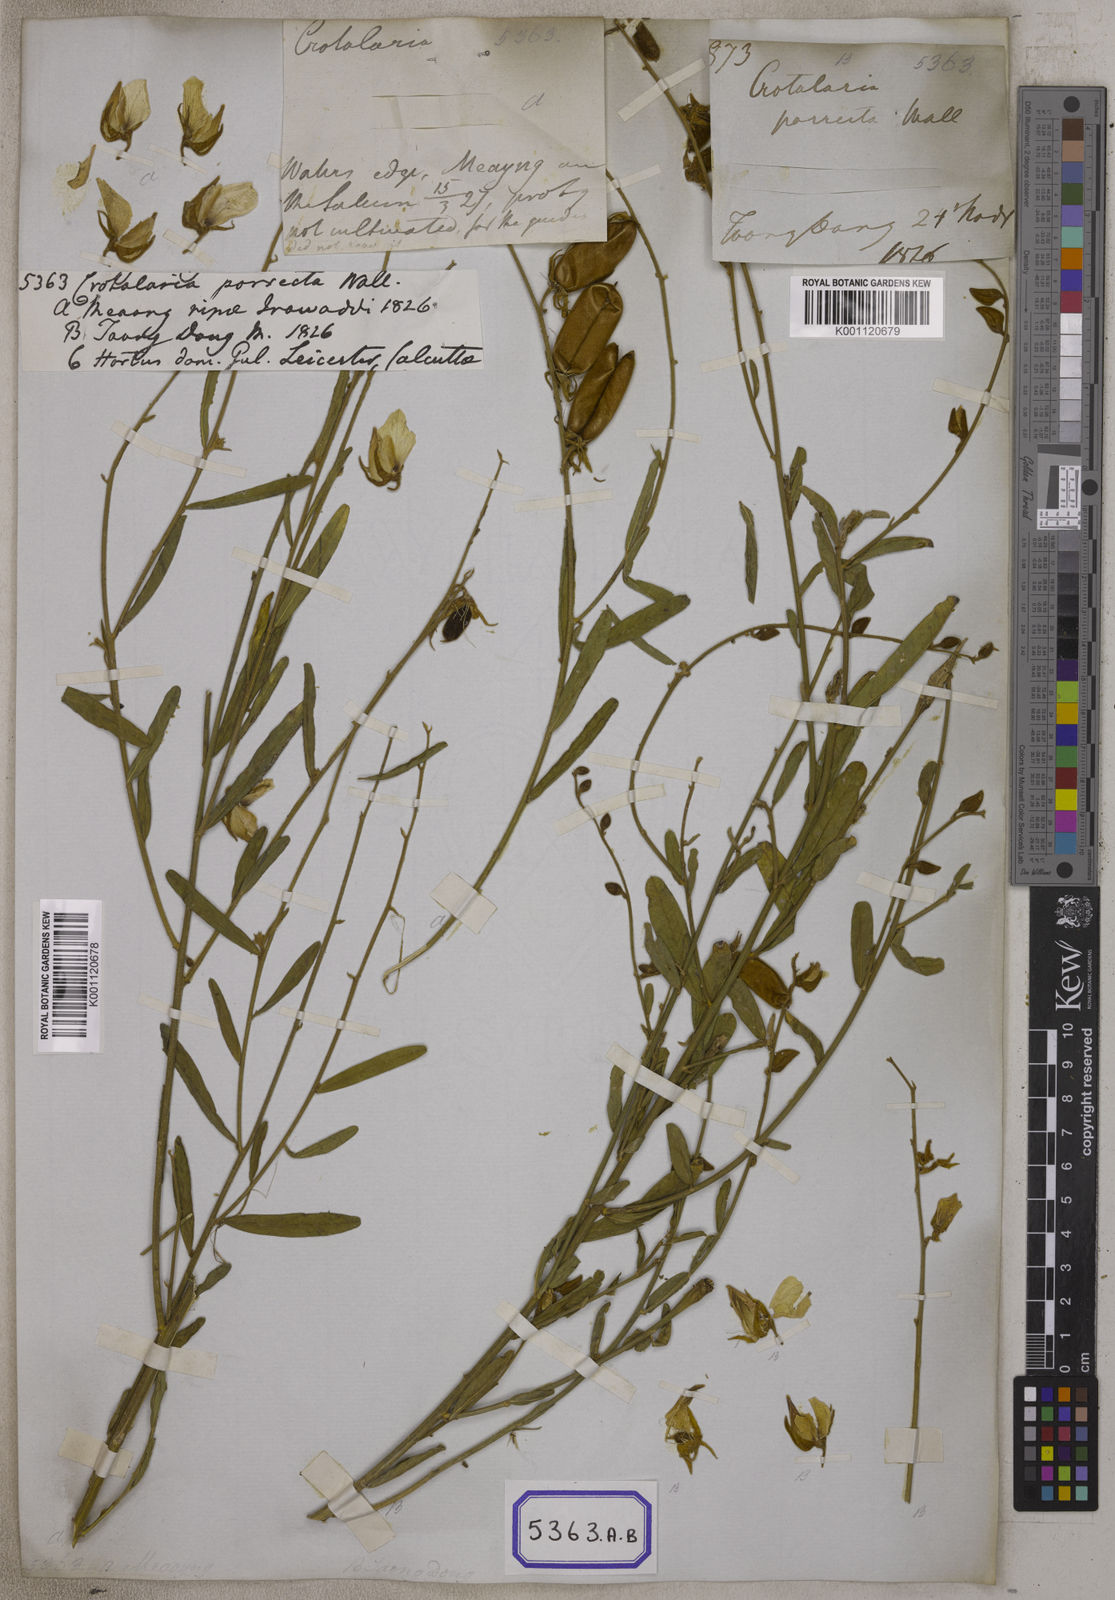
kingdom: Plantae
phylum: Tracheophyta
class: Magnoliopsida
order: Fabales
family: Fabaceae
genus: Crotalaria
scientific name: Crotalaria juncea
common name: Sunn hemp
